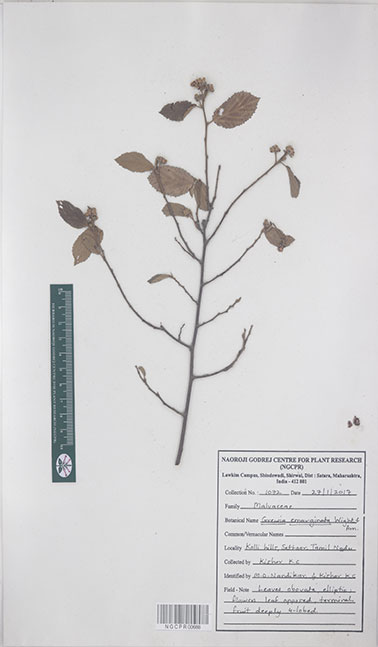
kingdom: Plantae
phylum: Tracheophyta
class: Magnoliopsida
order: Malvales
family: Malvaceae
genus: Grewia
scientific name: Grewia oppositifolia
